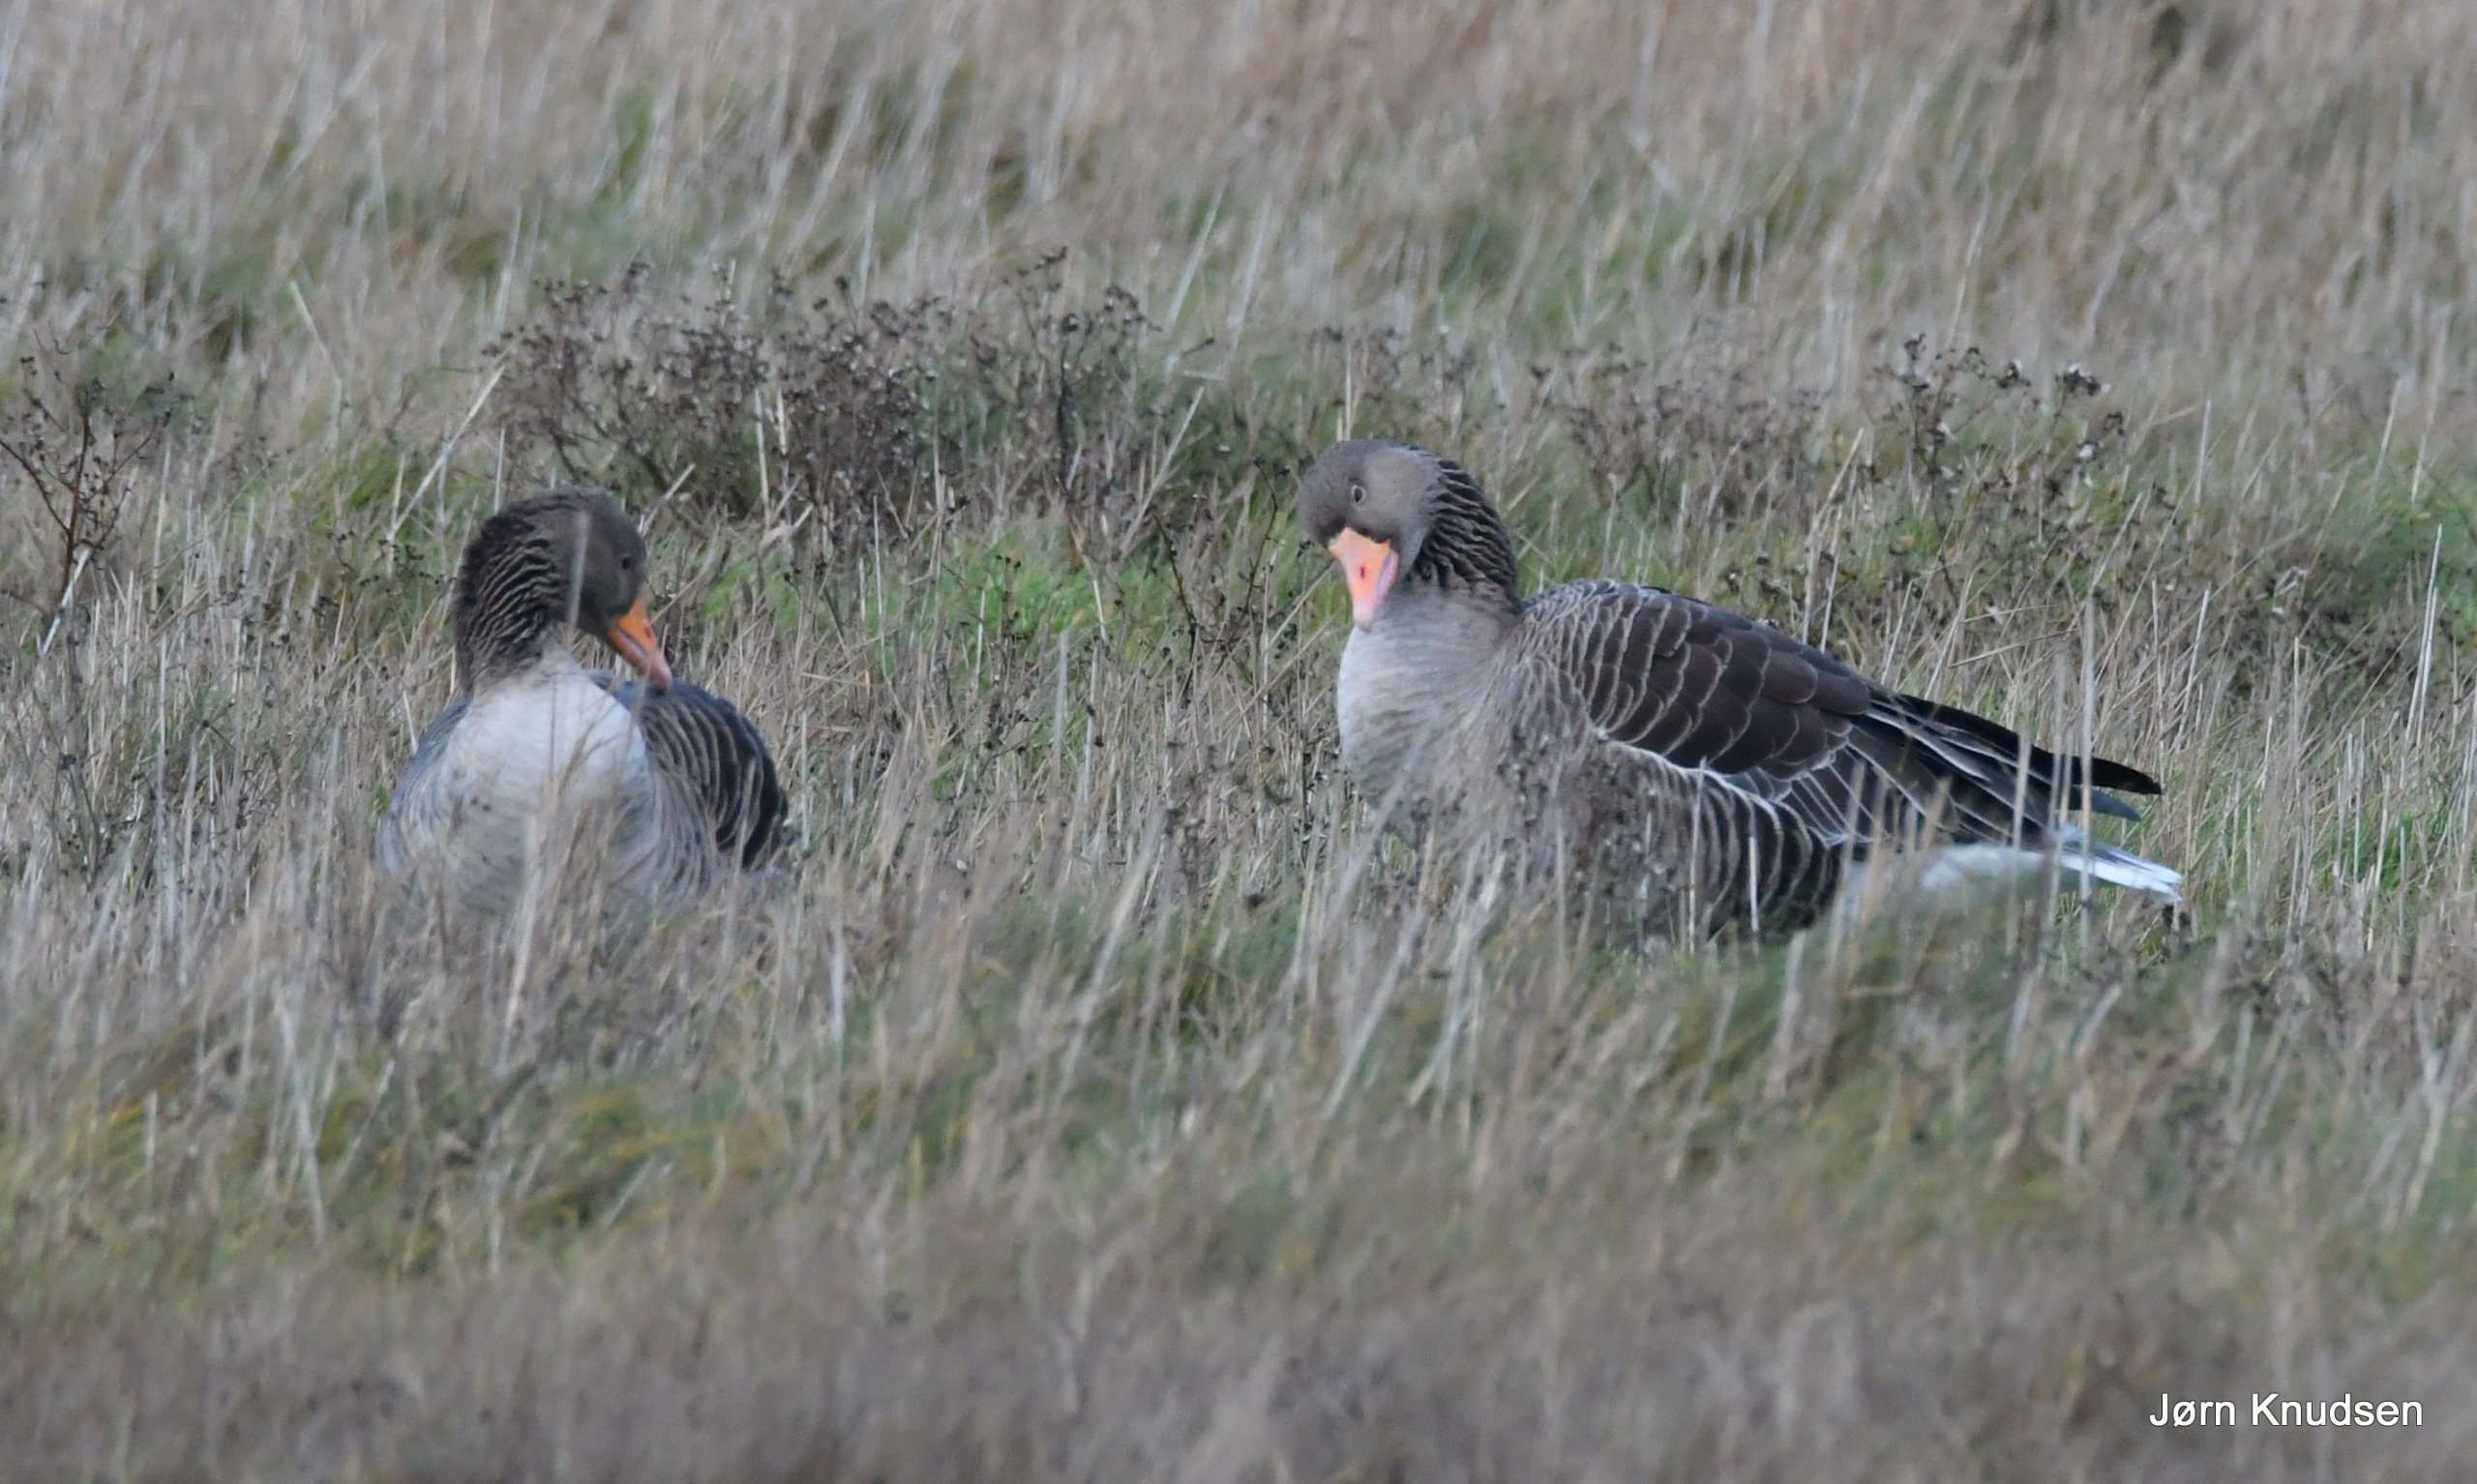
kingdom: Animalia
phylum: Chordata
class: Aves
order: Anseriformes
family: Anatidae
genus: Anser
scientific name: Anser anser
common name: Grågås
